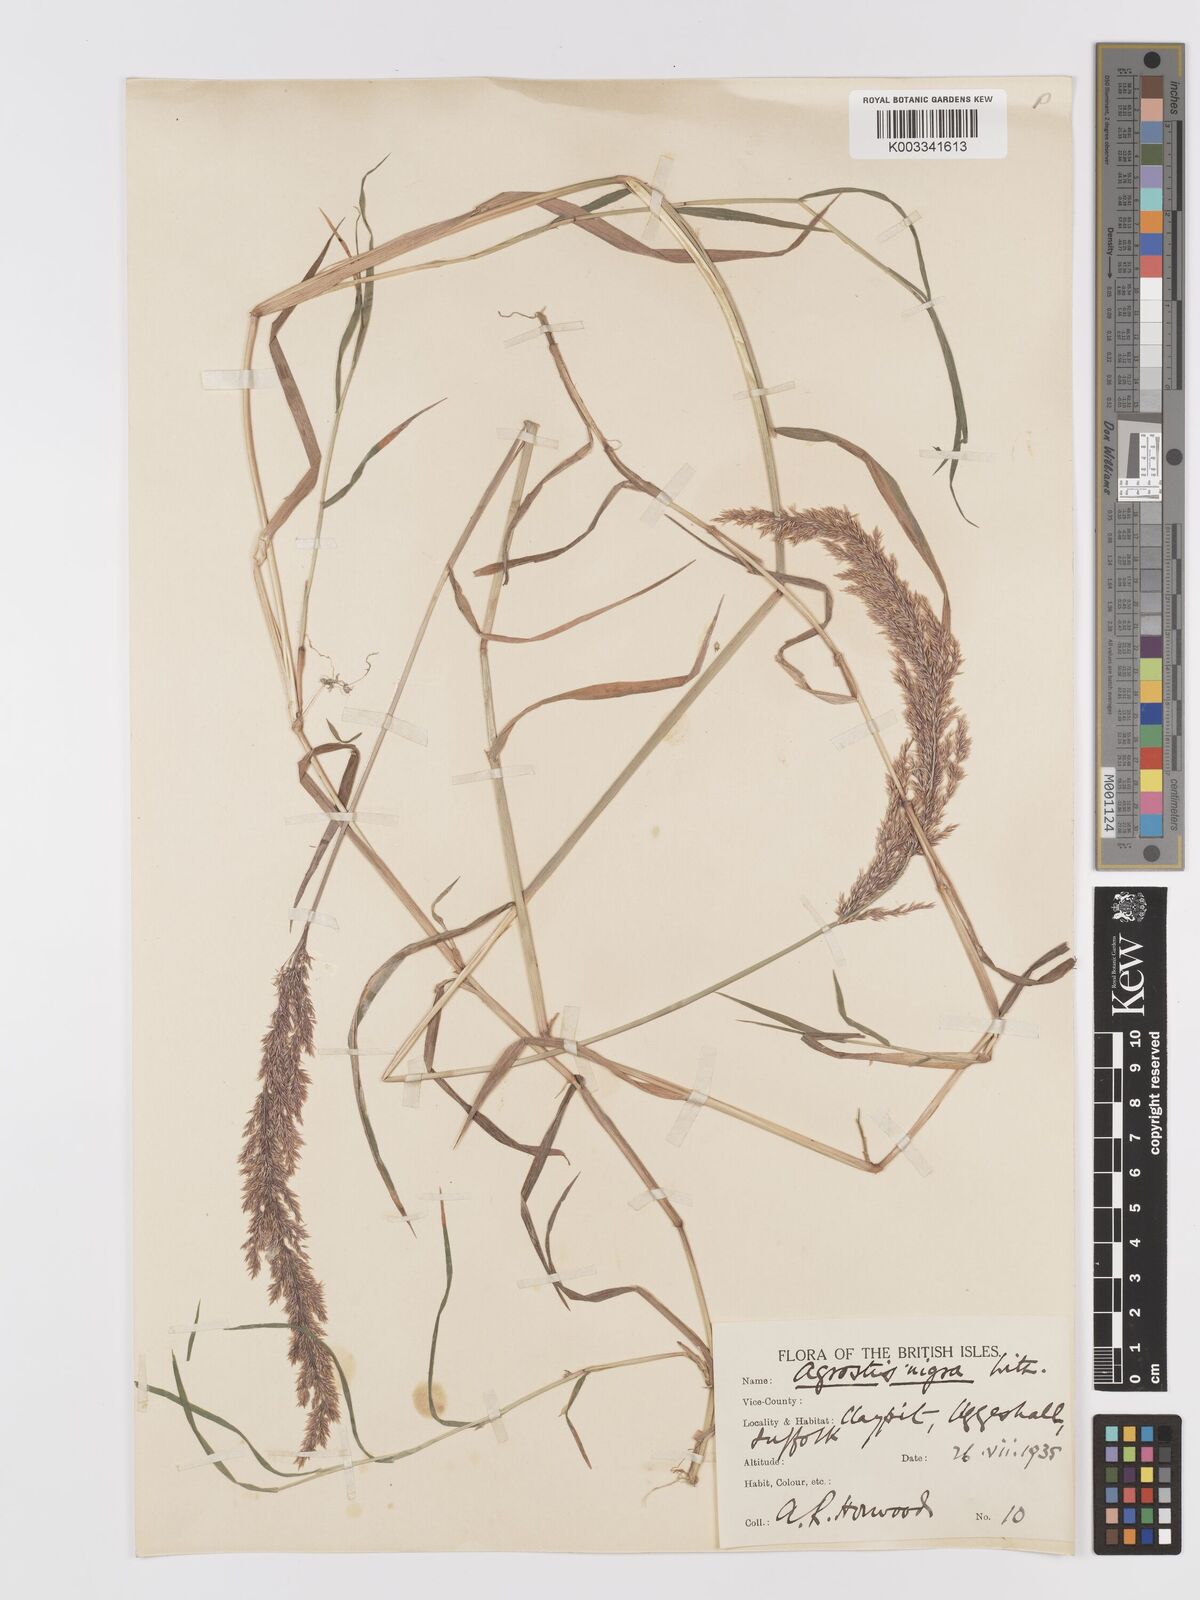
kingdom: Plantae
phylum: Tracheophyta
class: Liliopsida
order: Poales
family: Poaceae
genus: Agrostis
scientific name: Agrostis stolonifera
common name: Creeping bentgrass
